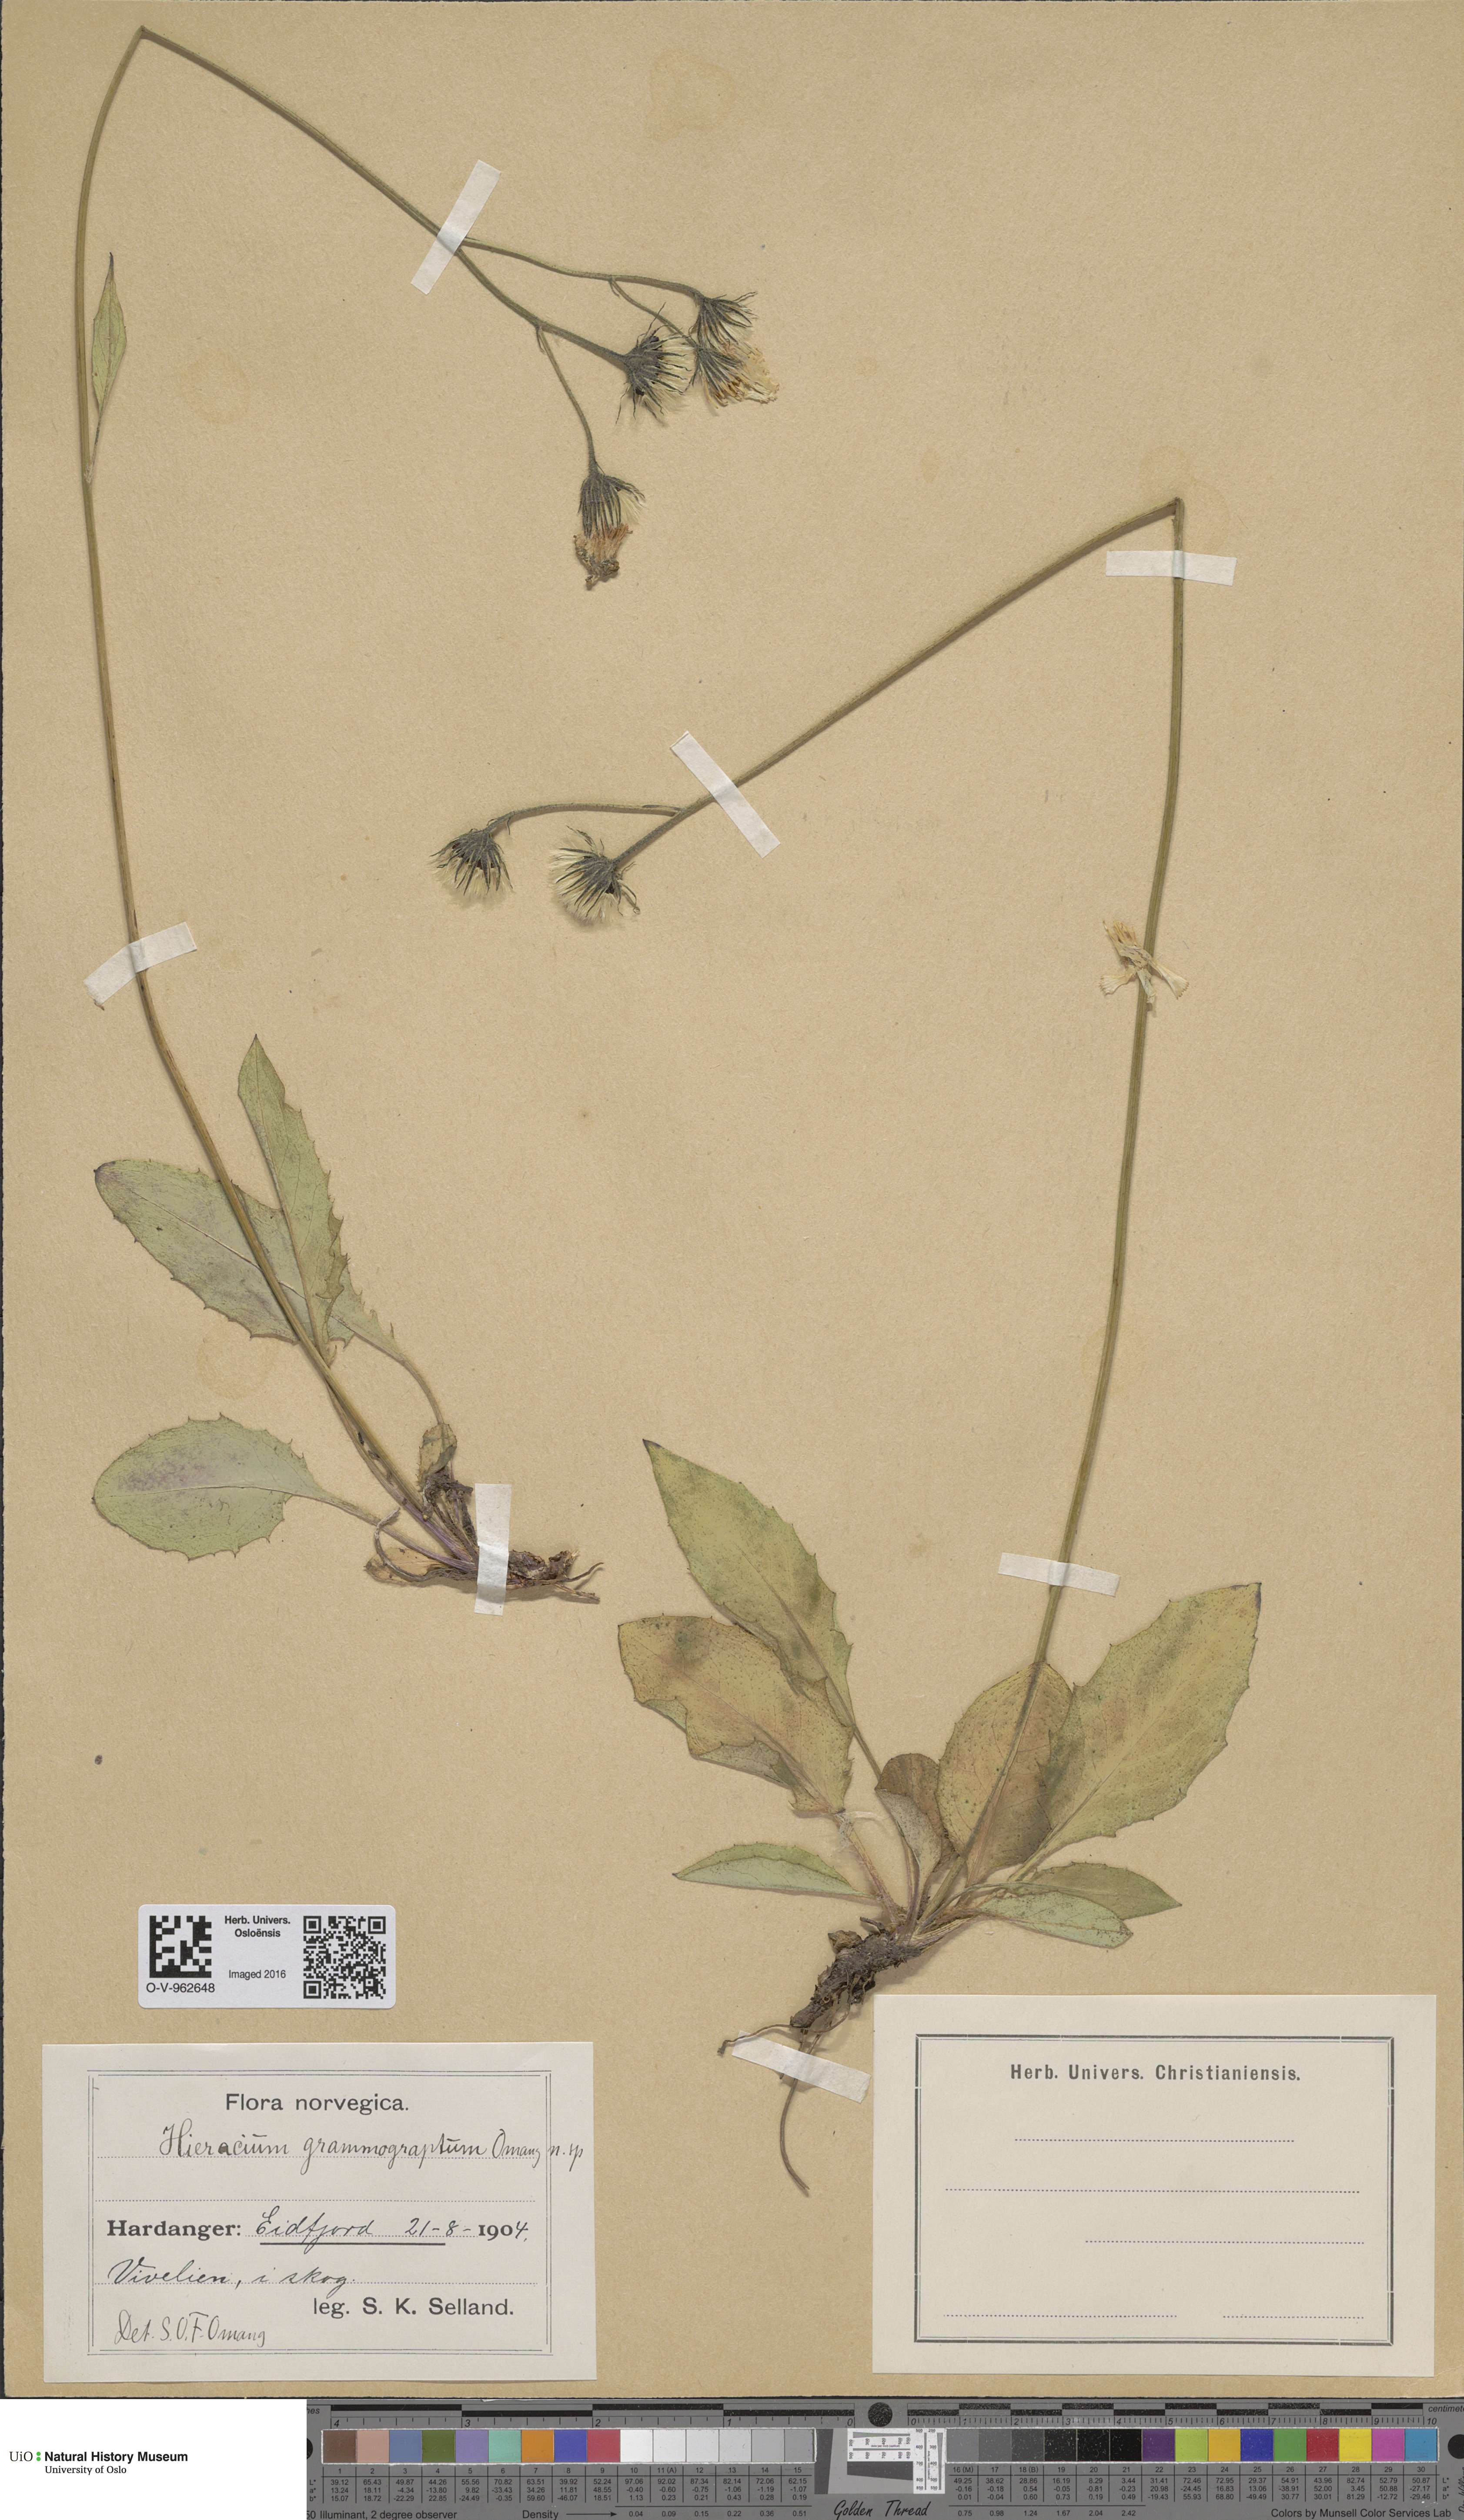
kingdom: Plantae
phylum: Tracheophyta
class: Magnoliopsida
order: Asterales
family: Asteraceae
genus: Hieracium
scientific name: Hieracium
